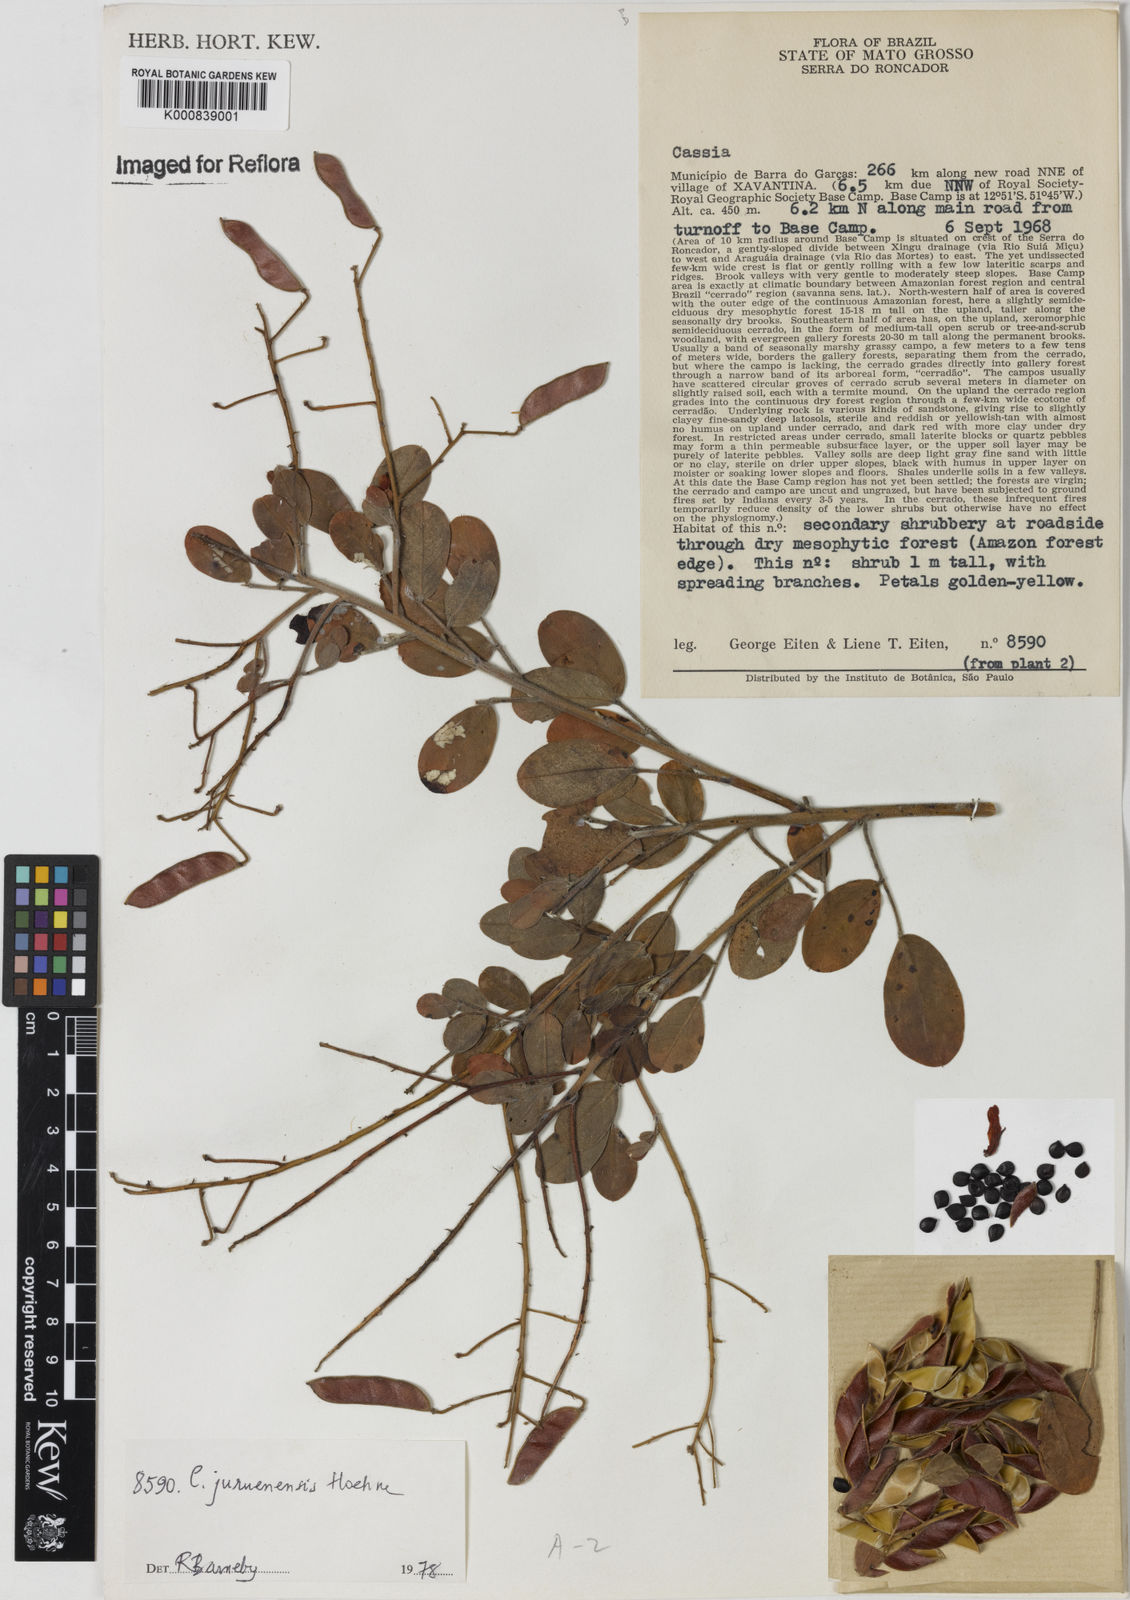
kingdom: Plantae
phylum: Tracheophyta
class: Magnoliopsida
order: Fabales
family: Fabaceae
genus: Chamaecrista
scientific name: Chamaecrista juruenensis
